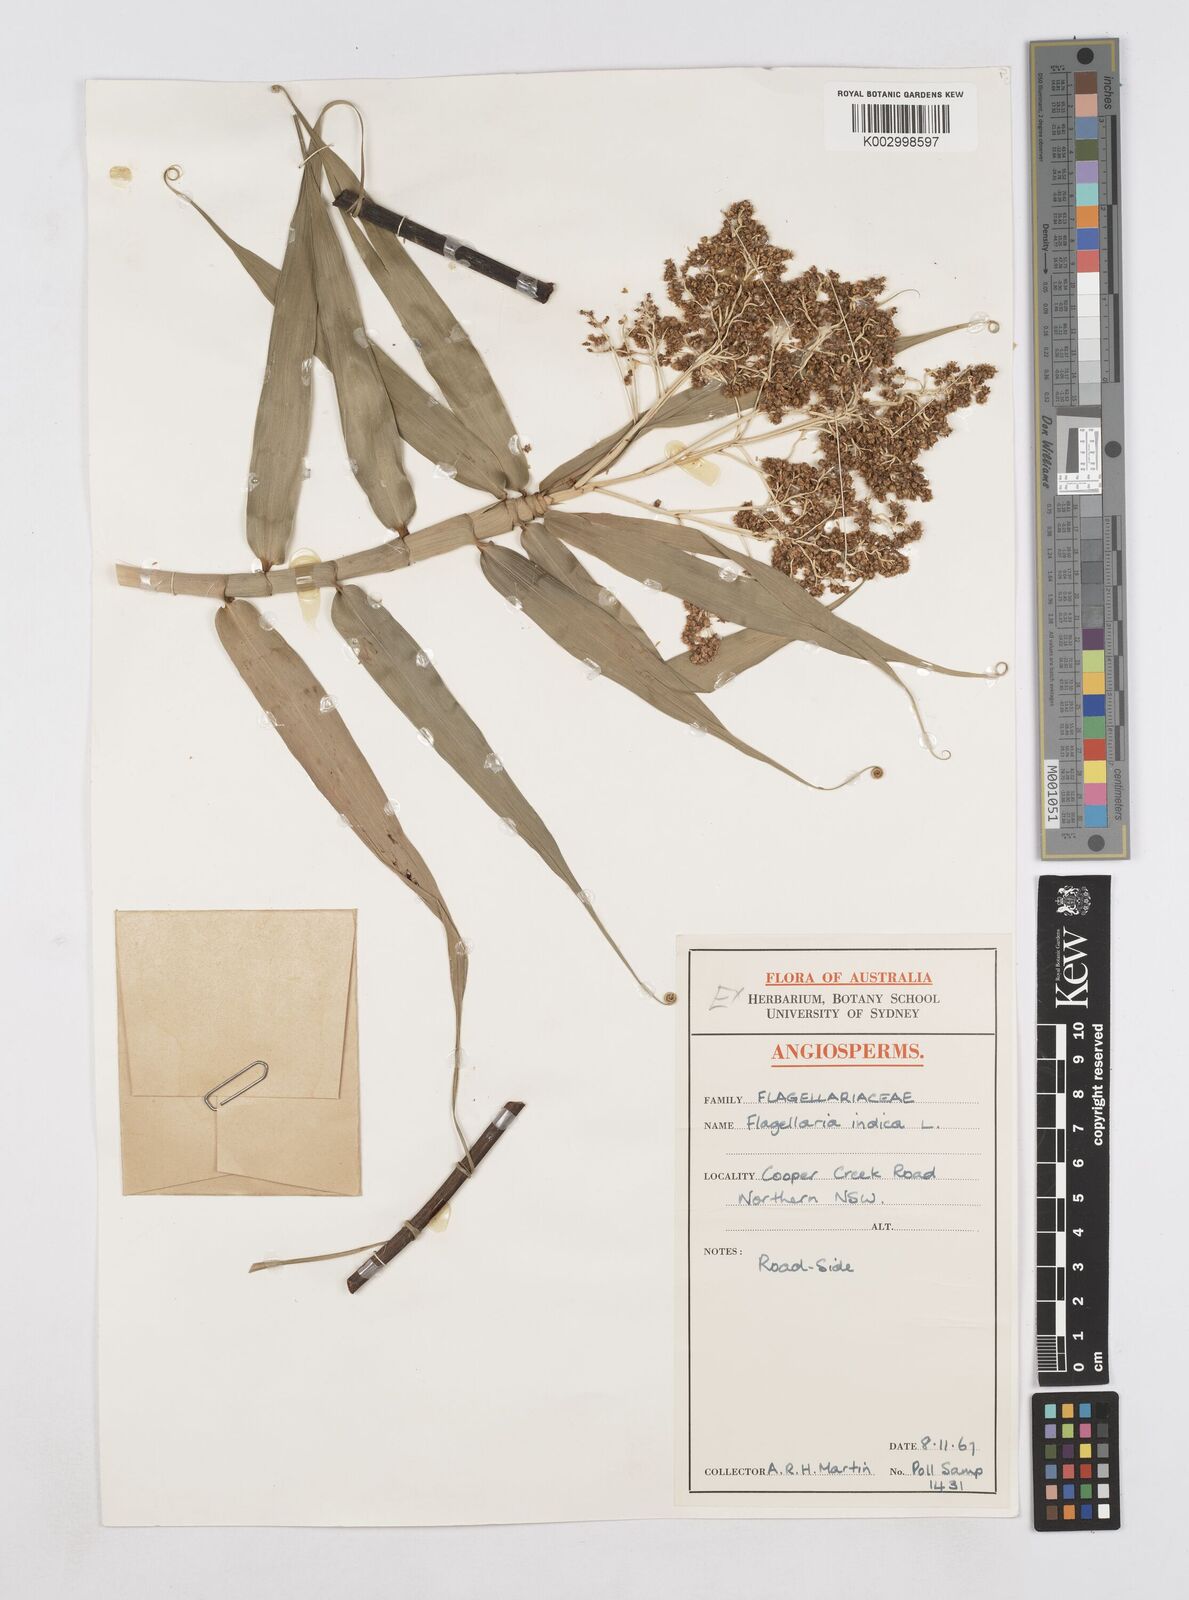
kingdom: Plantae
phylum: Tracheophyta
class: Liliopsida
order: Poales
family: Flagellariaceae
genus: Flagellaria
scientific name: Flagellaria indica
